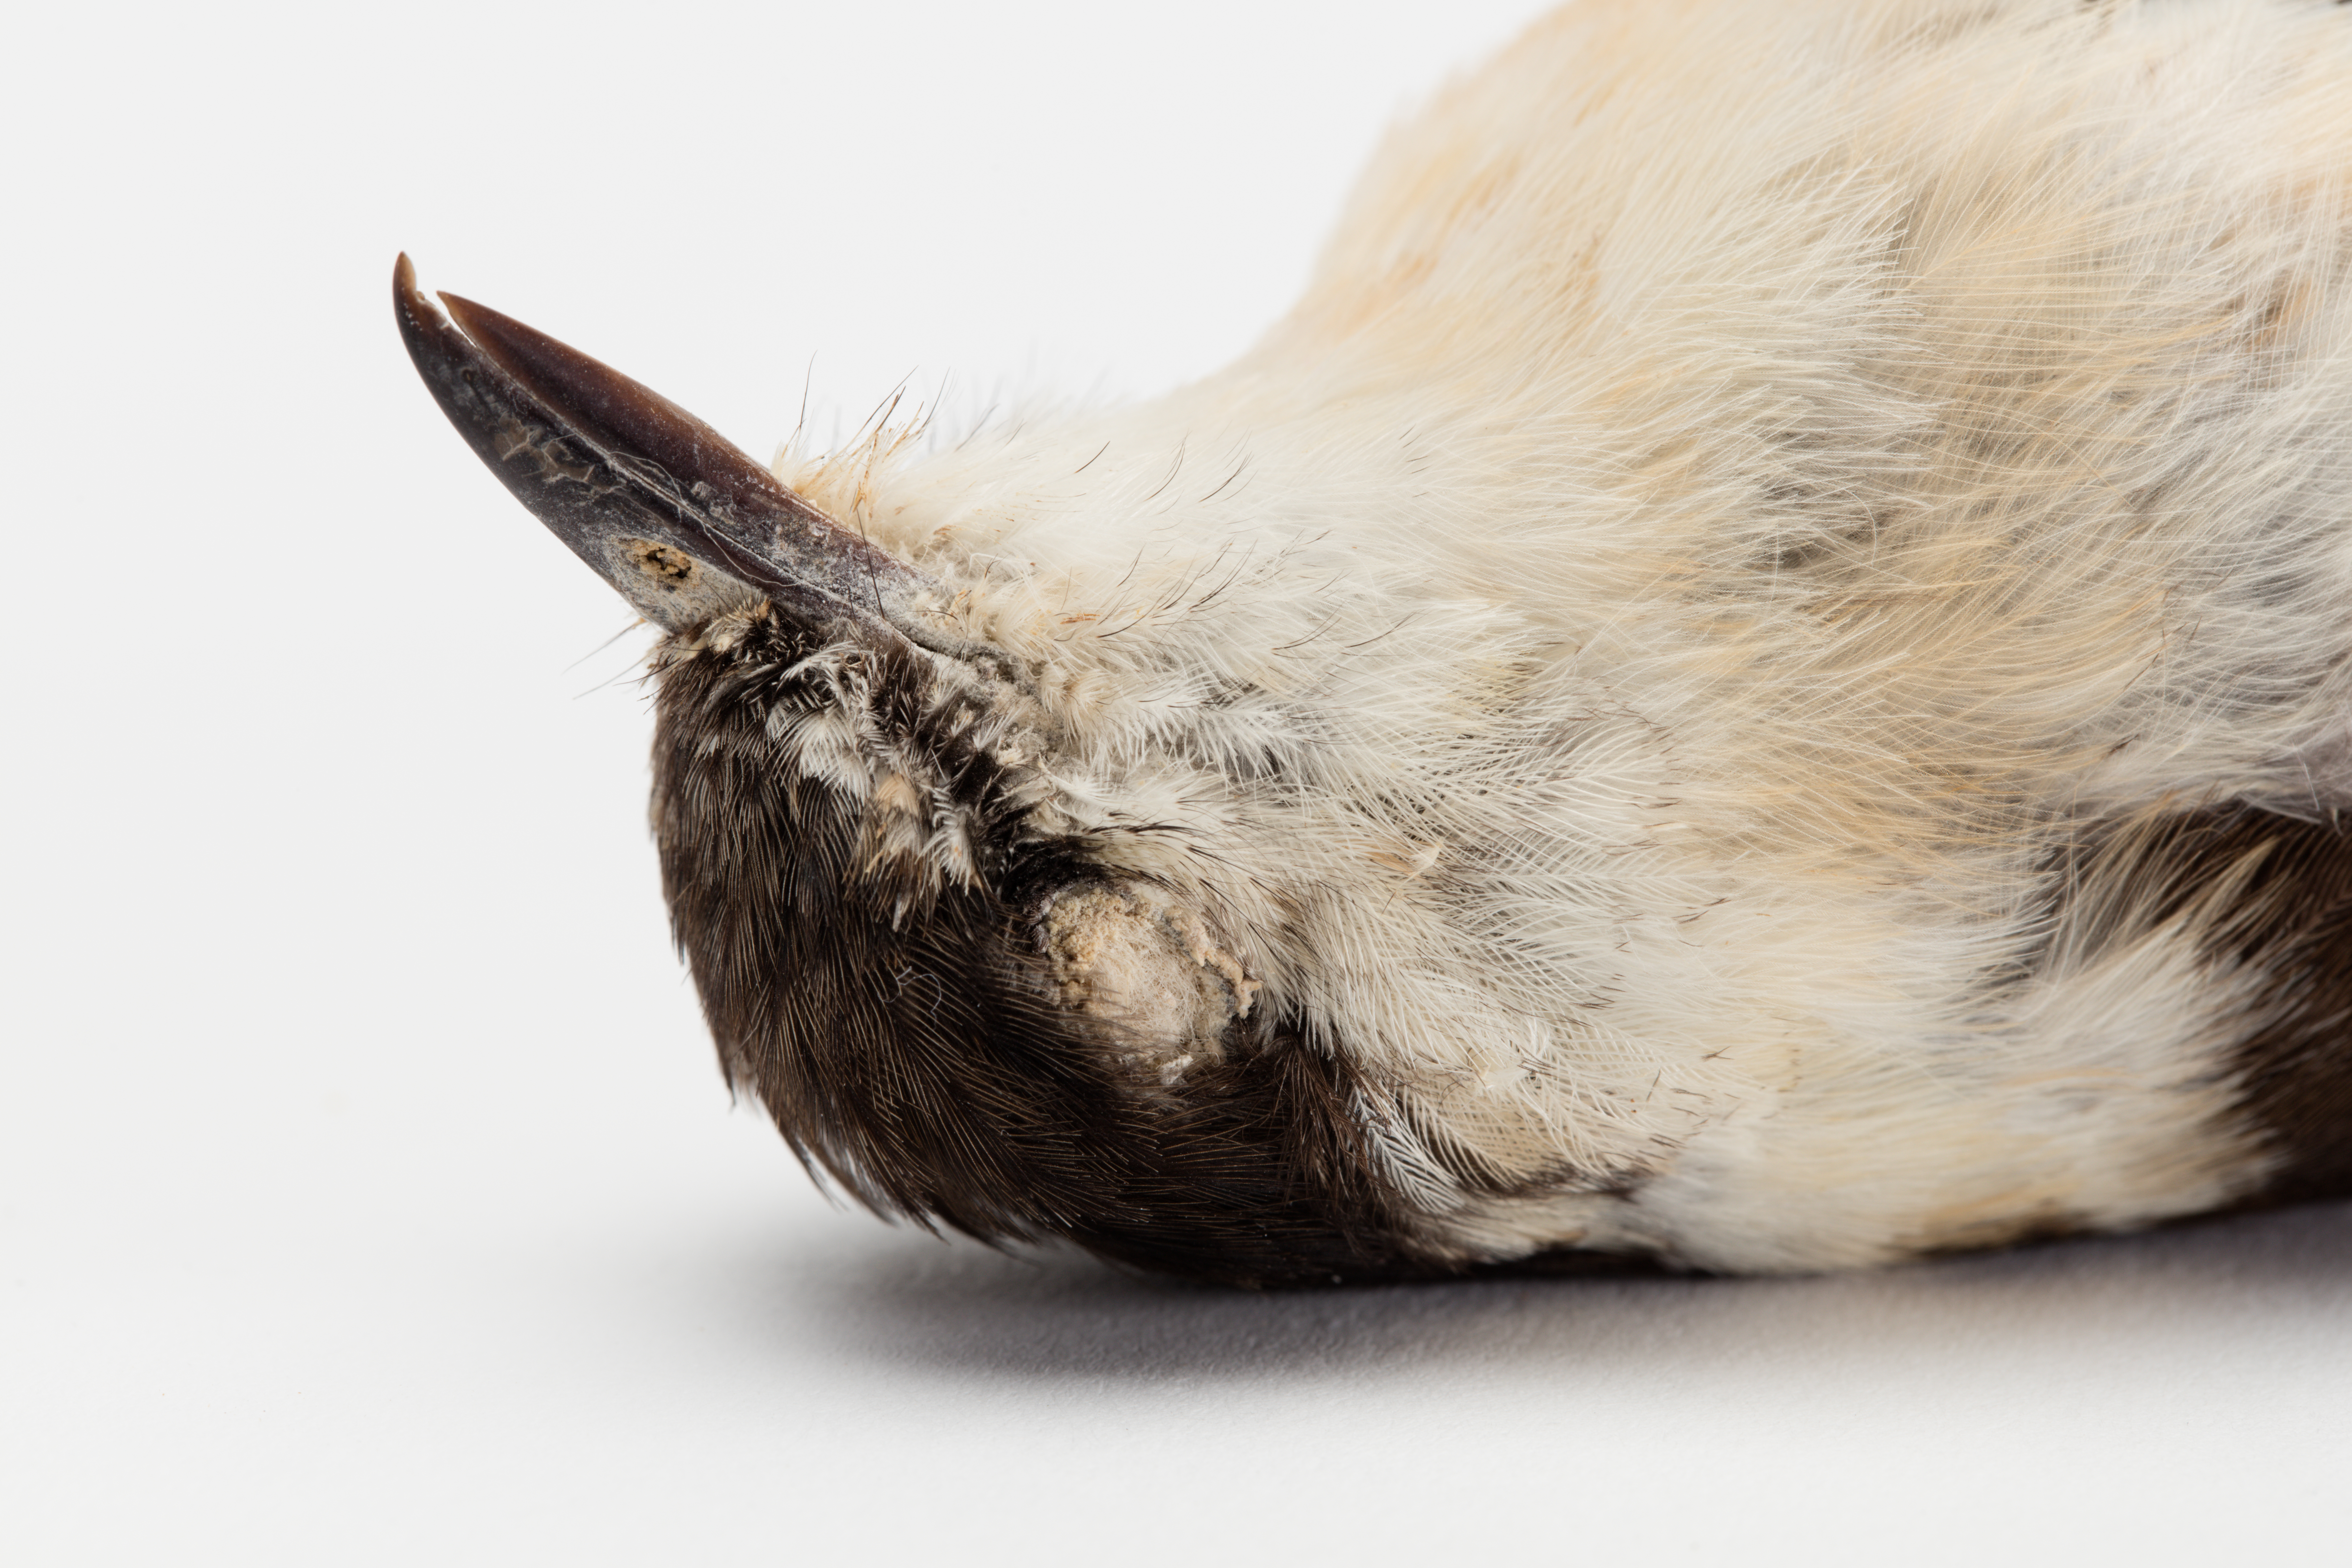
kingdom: Animalia
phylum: Chordata
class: Aves
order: Passeriformes
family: Campephagidae
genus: Lalage
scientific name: Lalage leucopyga
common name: Long-tailed triller
